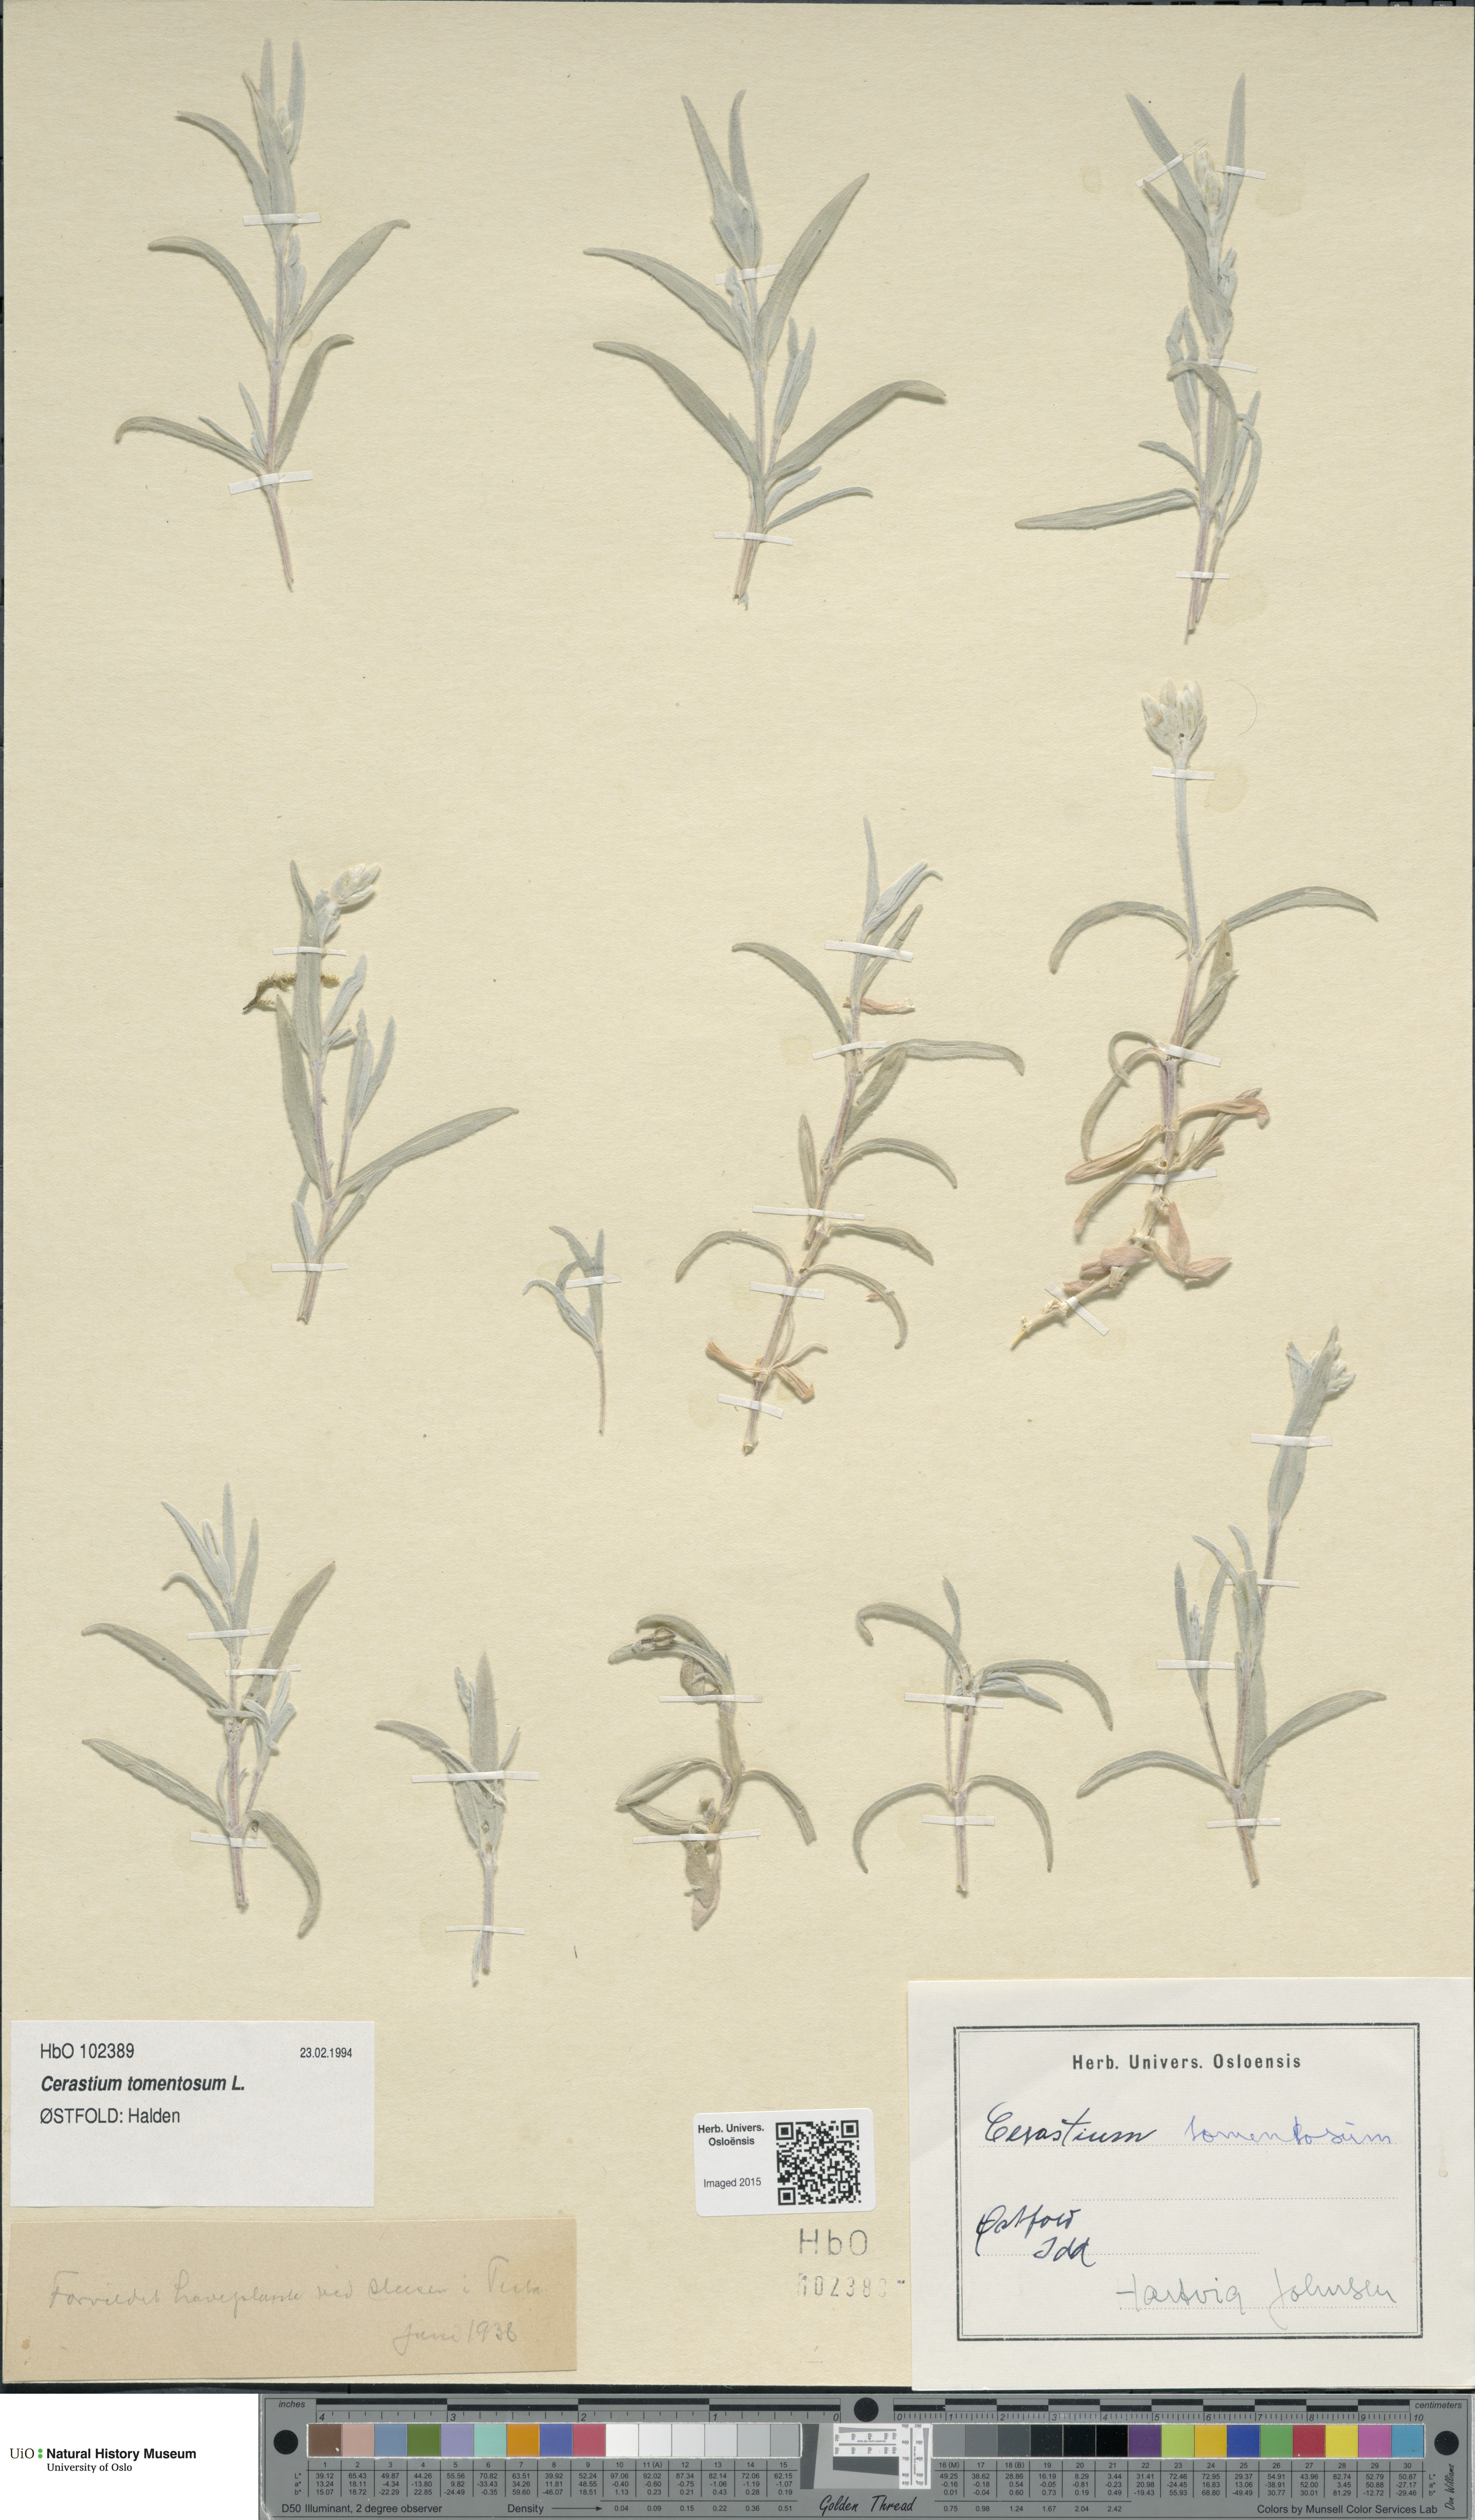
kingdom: Plantae
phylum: Tracheophyta
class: Magnoliopsida
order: Caryophyllales
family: Caryophyllaceae
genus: Cerastium
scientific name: Cerastium tomentosum
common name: Snow-in-summer
